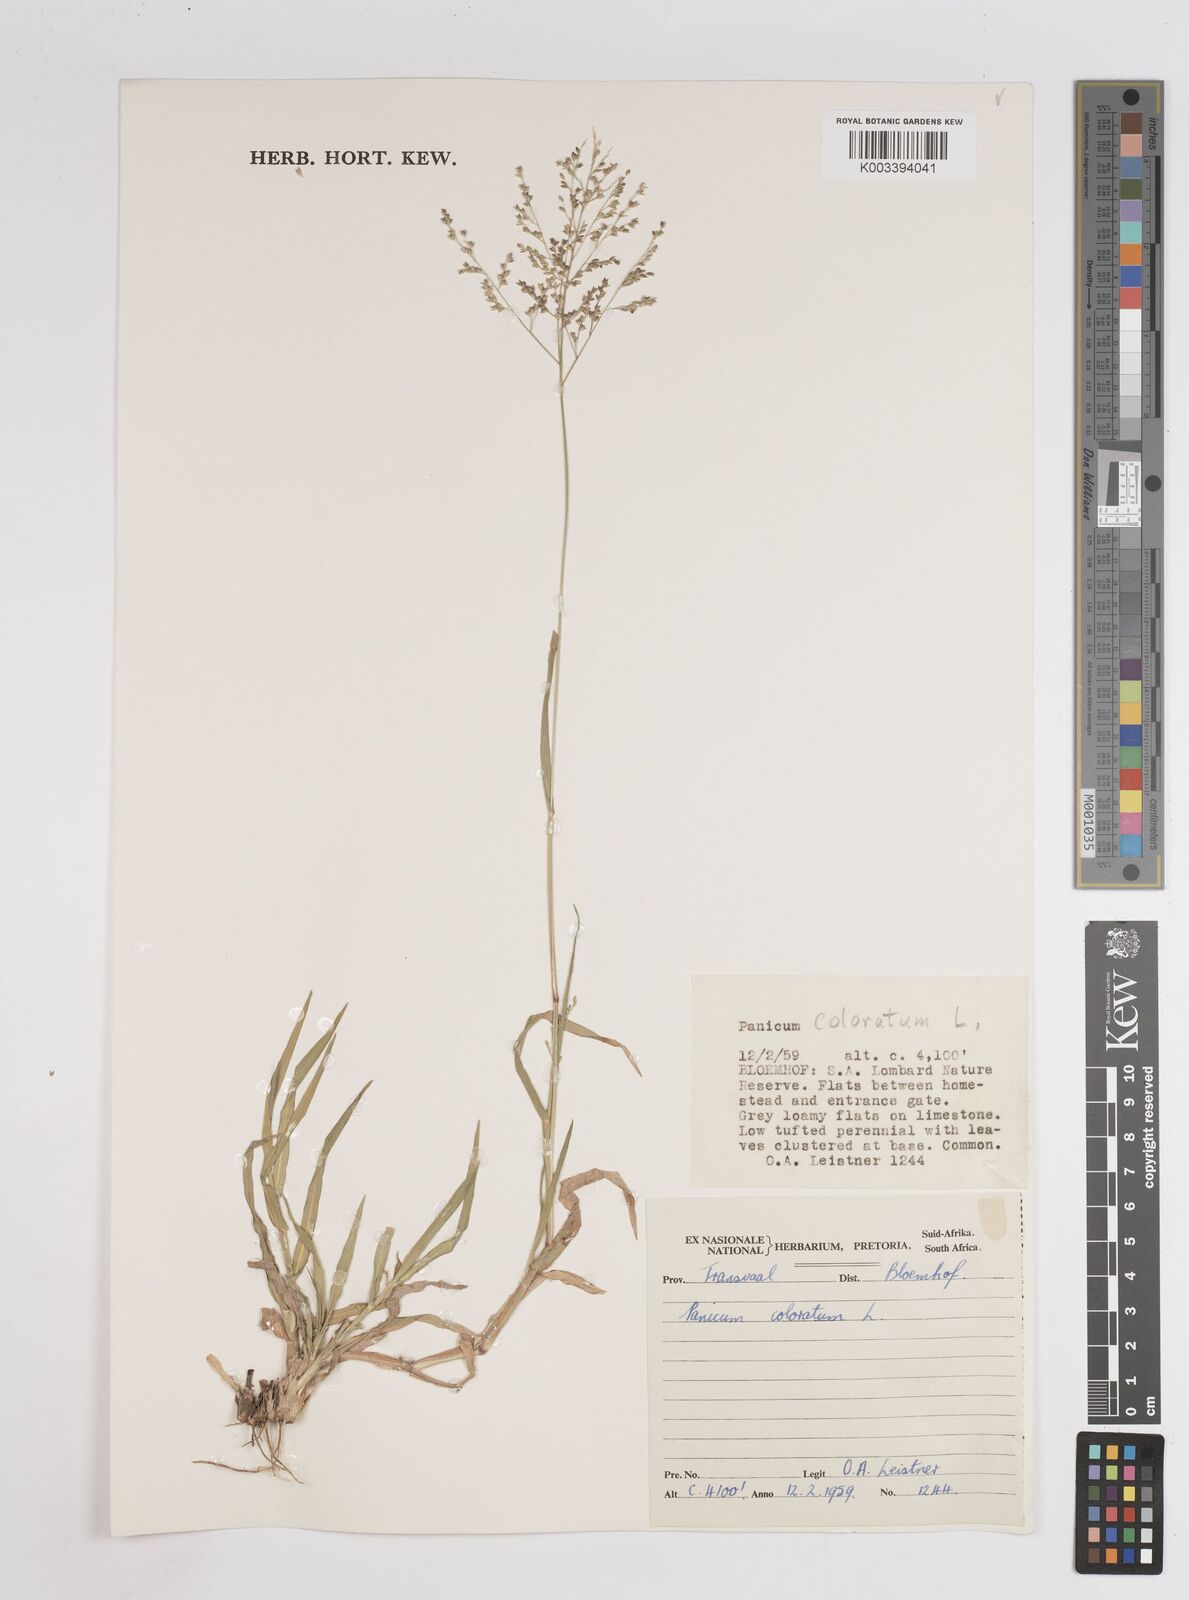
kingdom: Plantae
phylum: Tracheophyta
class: Liliopsida
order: Poales
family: Poaceae
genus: Panicum
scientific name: Panicum coloratum
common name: Kleingrass
